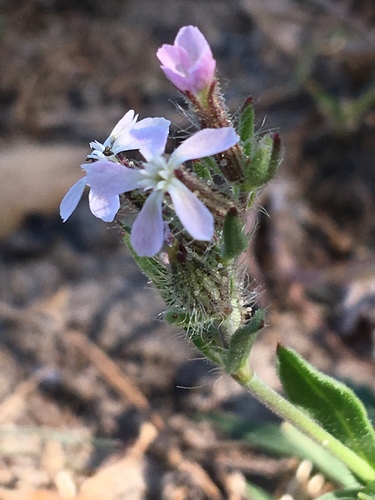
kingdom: Plantae
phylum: Tracheophyta
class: Magnoliopsida
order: Caryophyllales
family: Caryophyllaceae
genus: Silene
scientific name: Silene gallica
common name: Small-flowered catchfly
